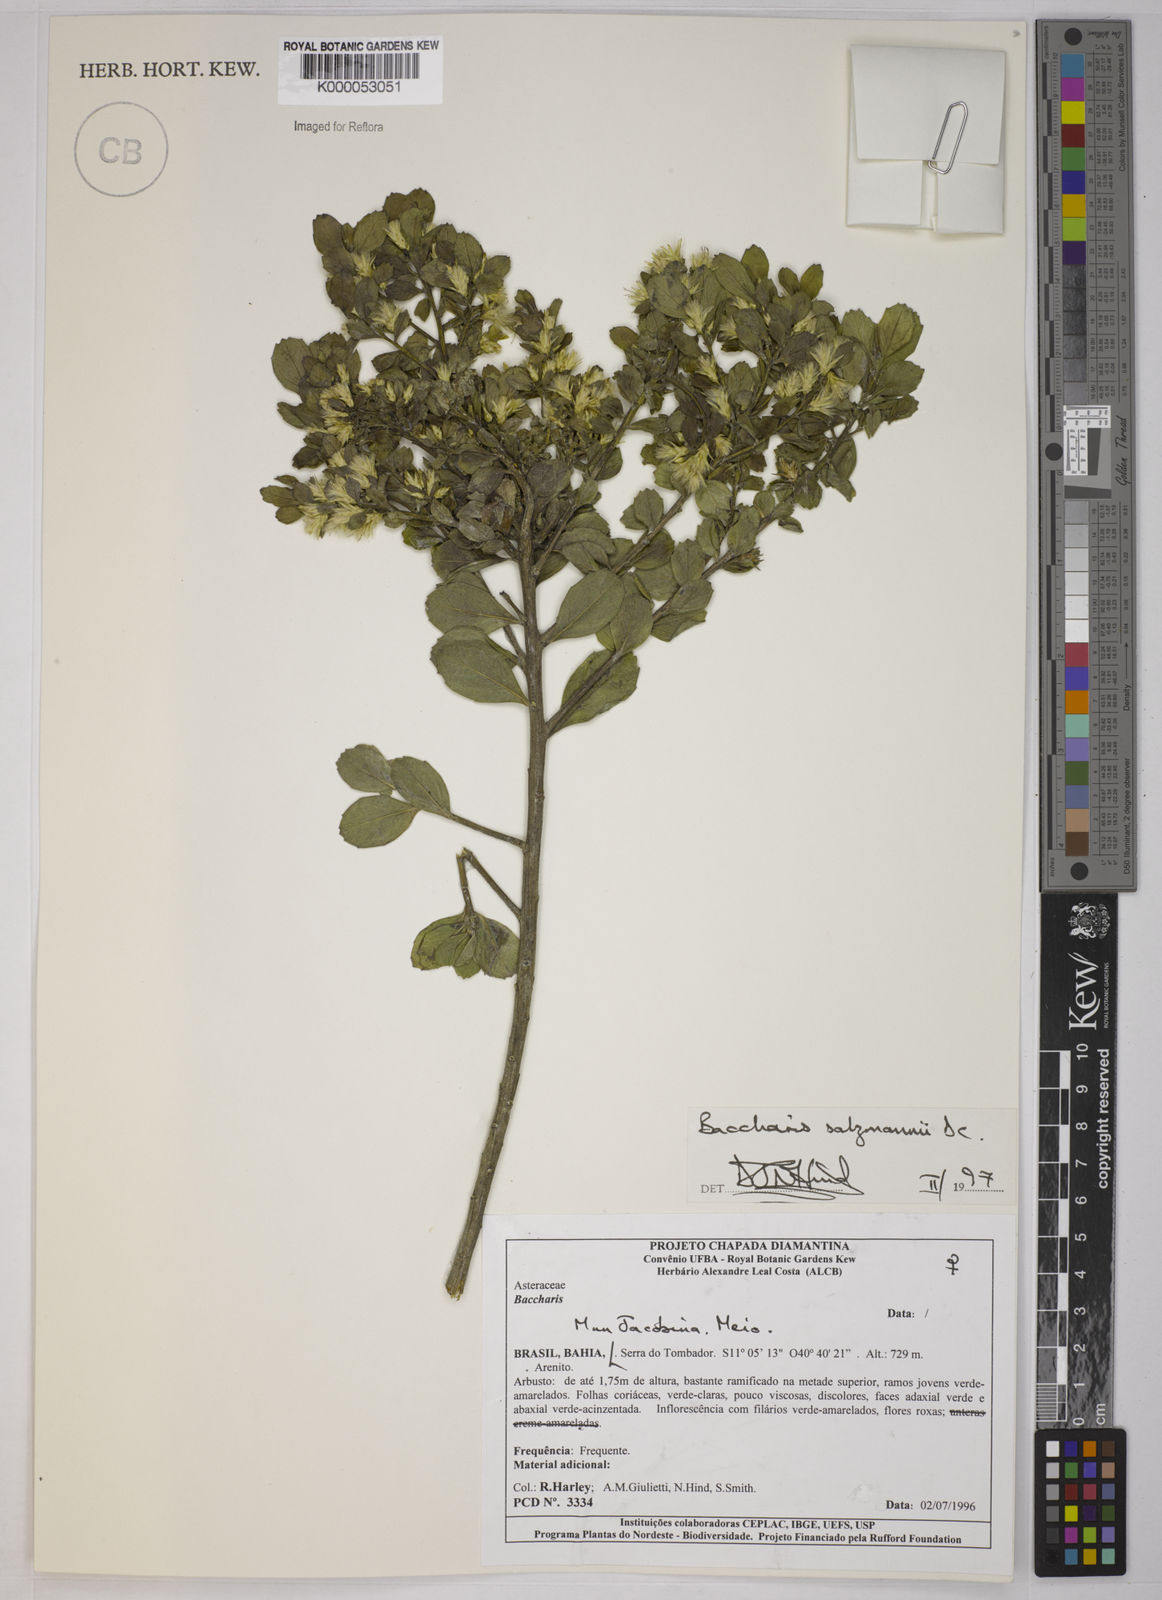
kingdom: Plantae
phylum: Tracheophyta
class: Magnoliopsida
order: Asterales
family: Asteraceae
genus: Baccharis
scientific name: Baccharis retusa
